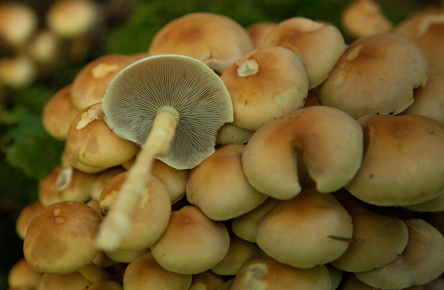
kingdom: Fungi
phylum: Basidiomycota
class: Agaricomycetes
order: Agaricales
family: Strophariaceae
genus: Hypholoma
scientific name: Hypholoma fasciculare
